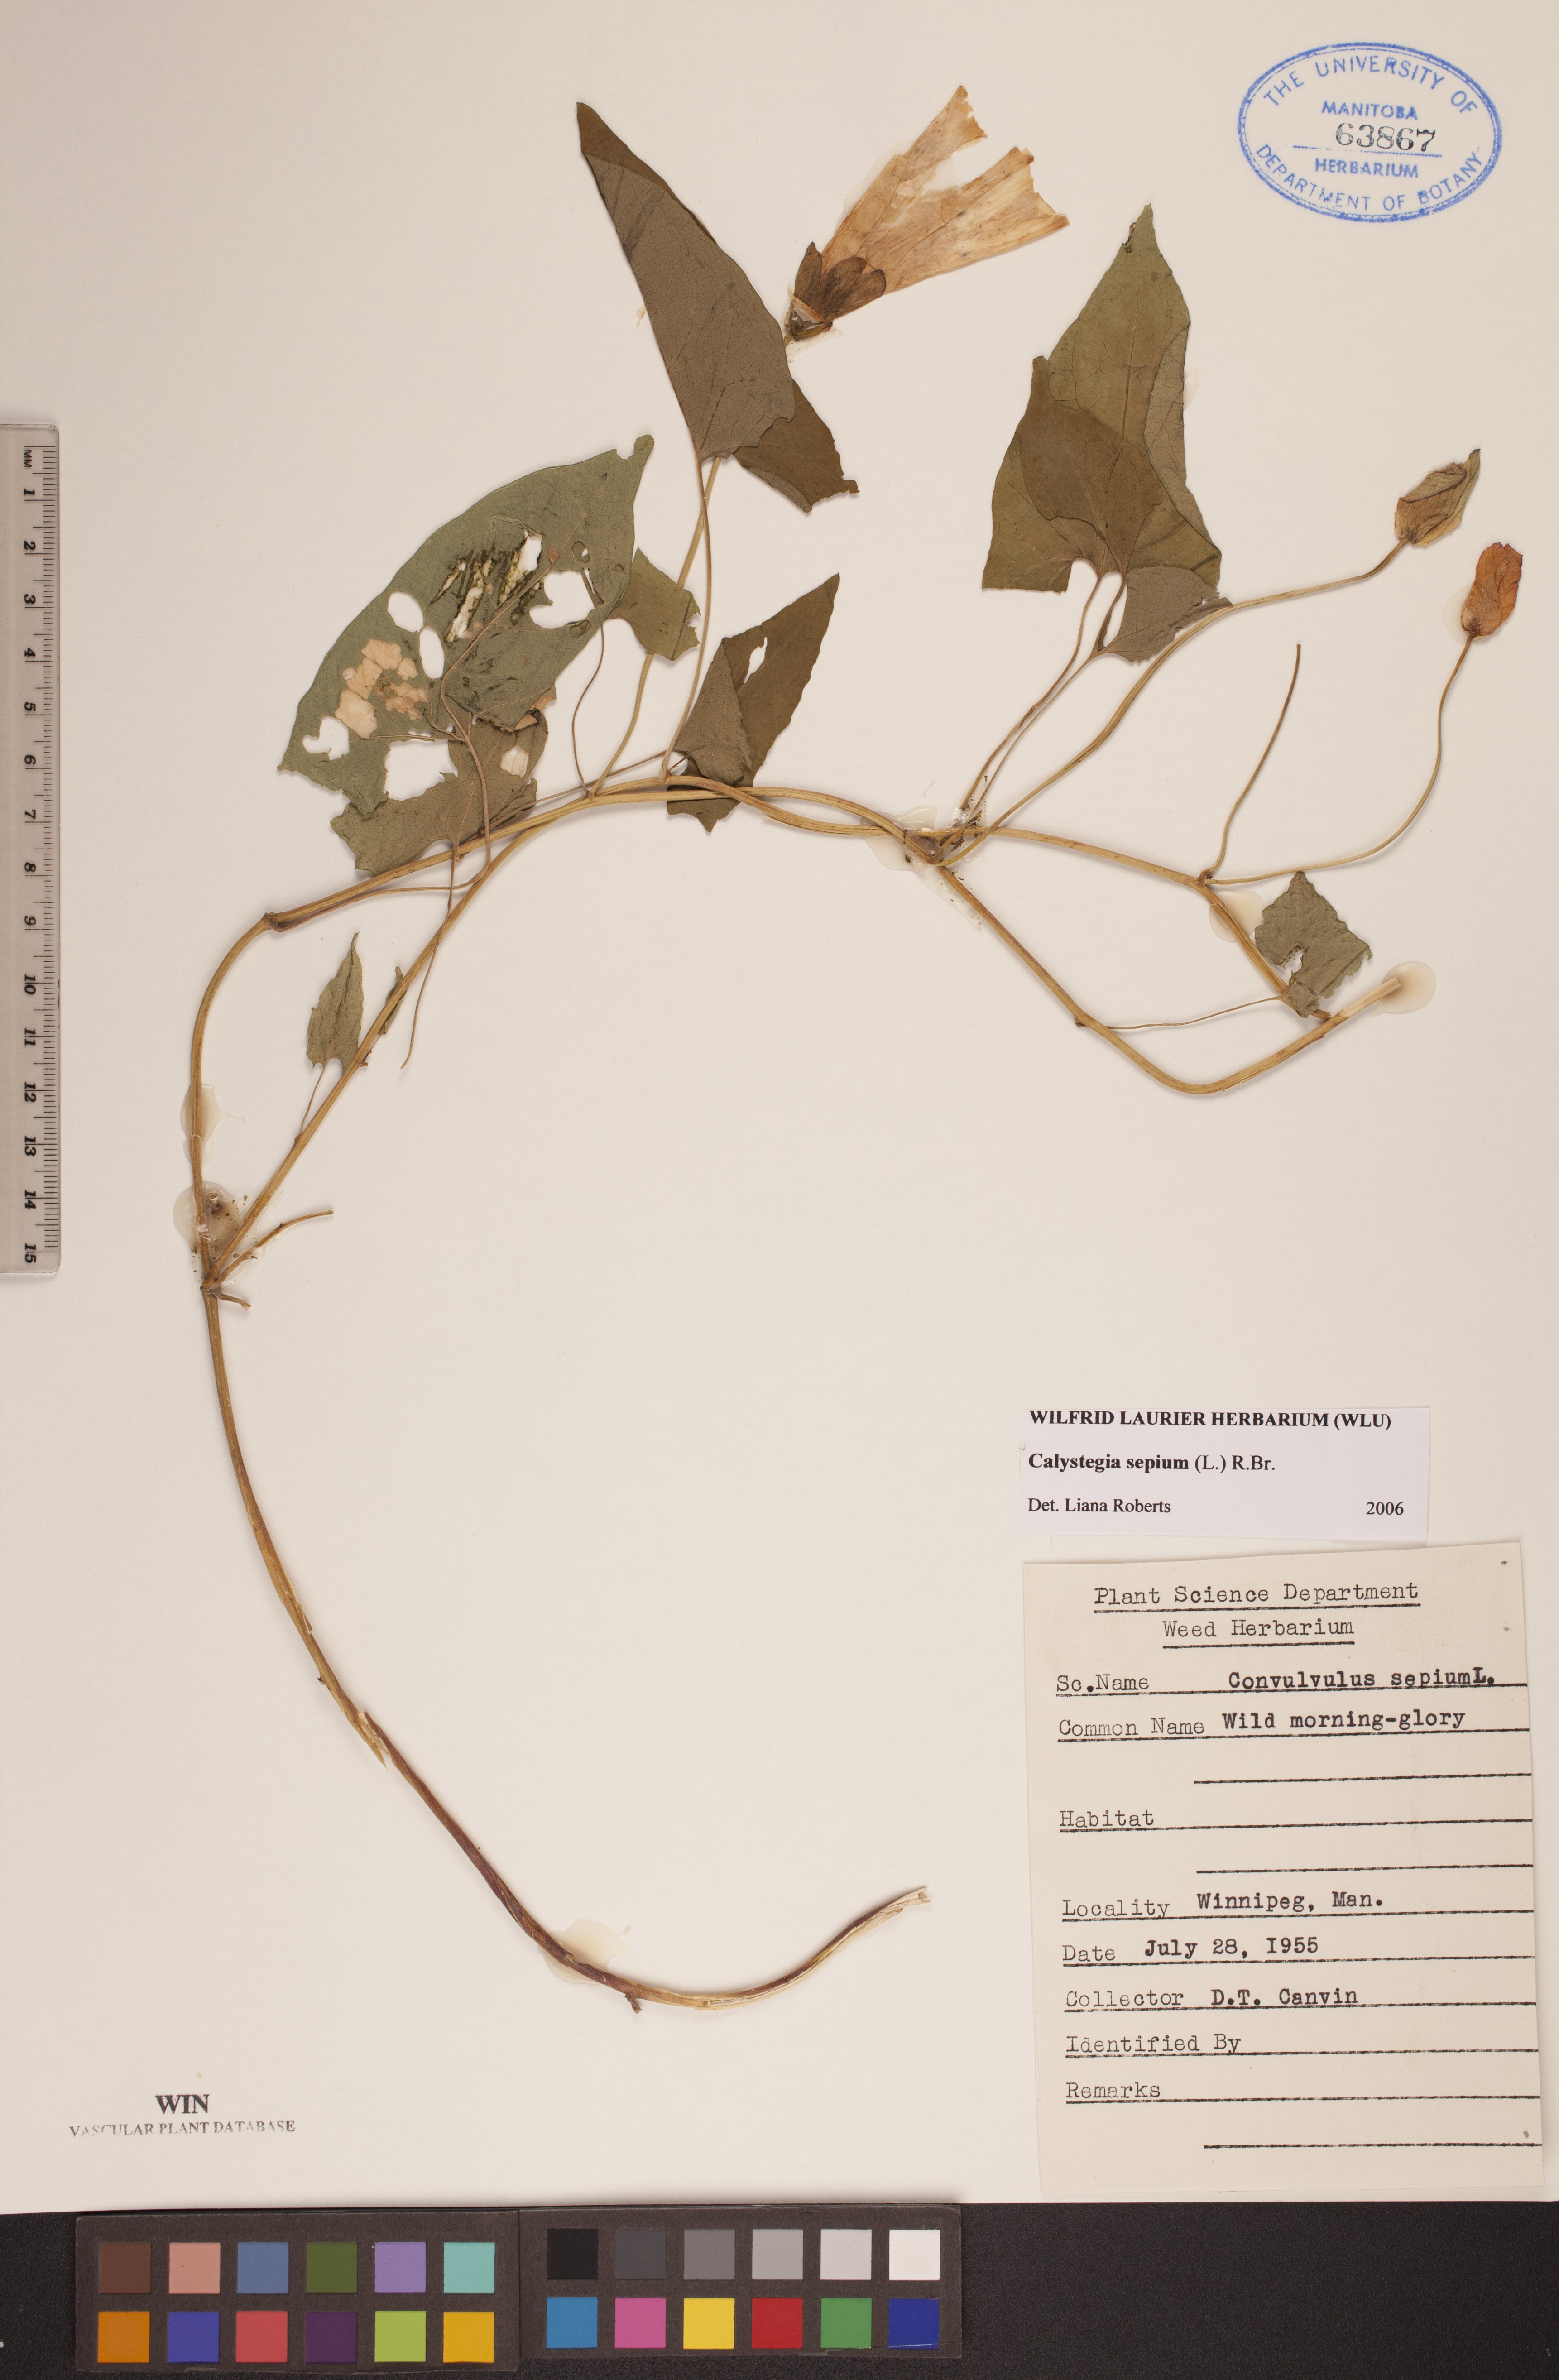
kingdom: Plantae
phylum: Tracheophyta
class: Magnoliopsida
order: Solanales
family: Convolvulaceae
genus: Calystegia
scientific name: Calystegia sepium
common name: Hedge bindweed
